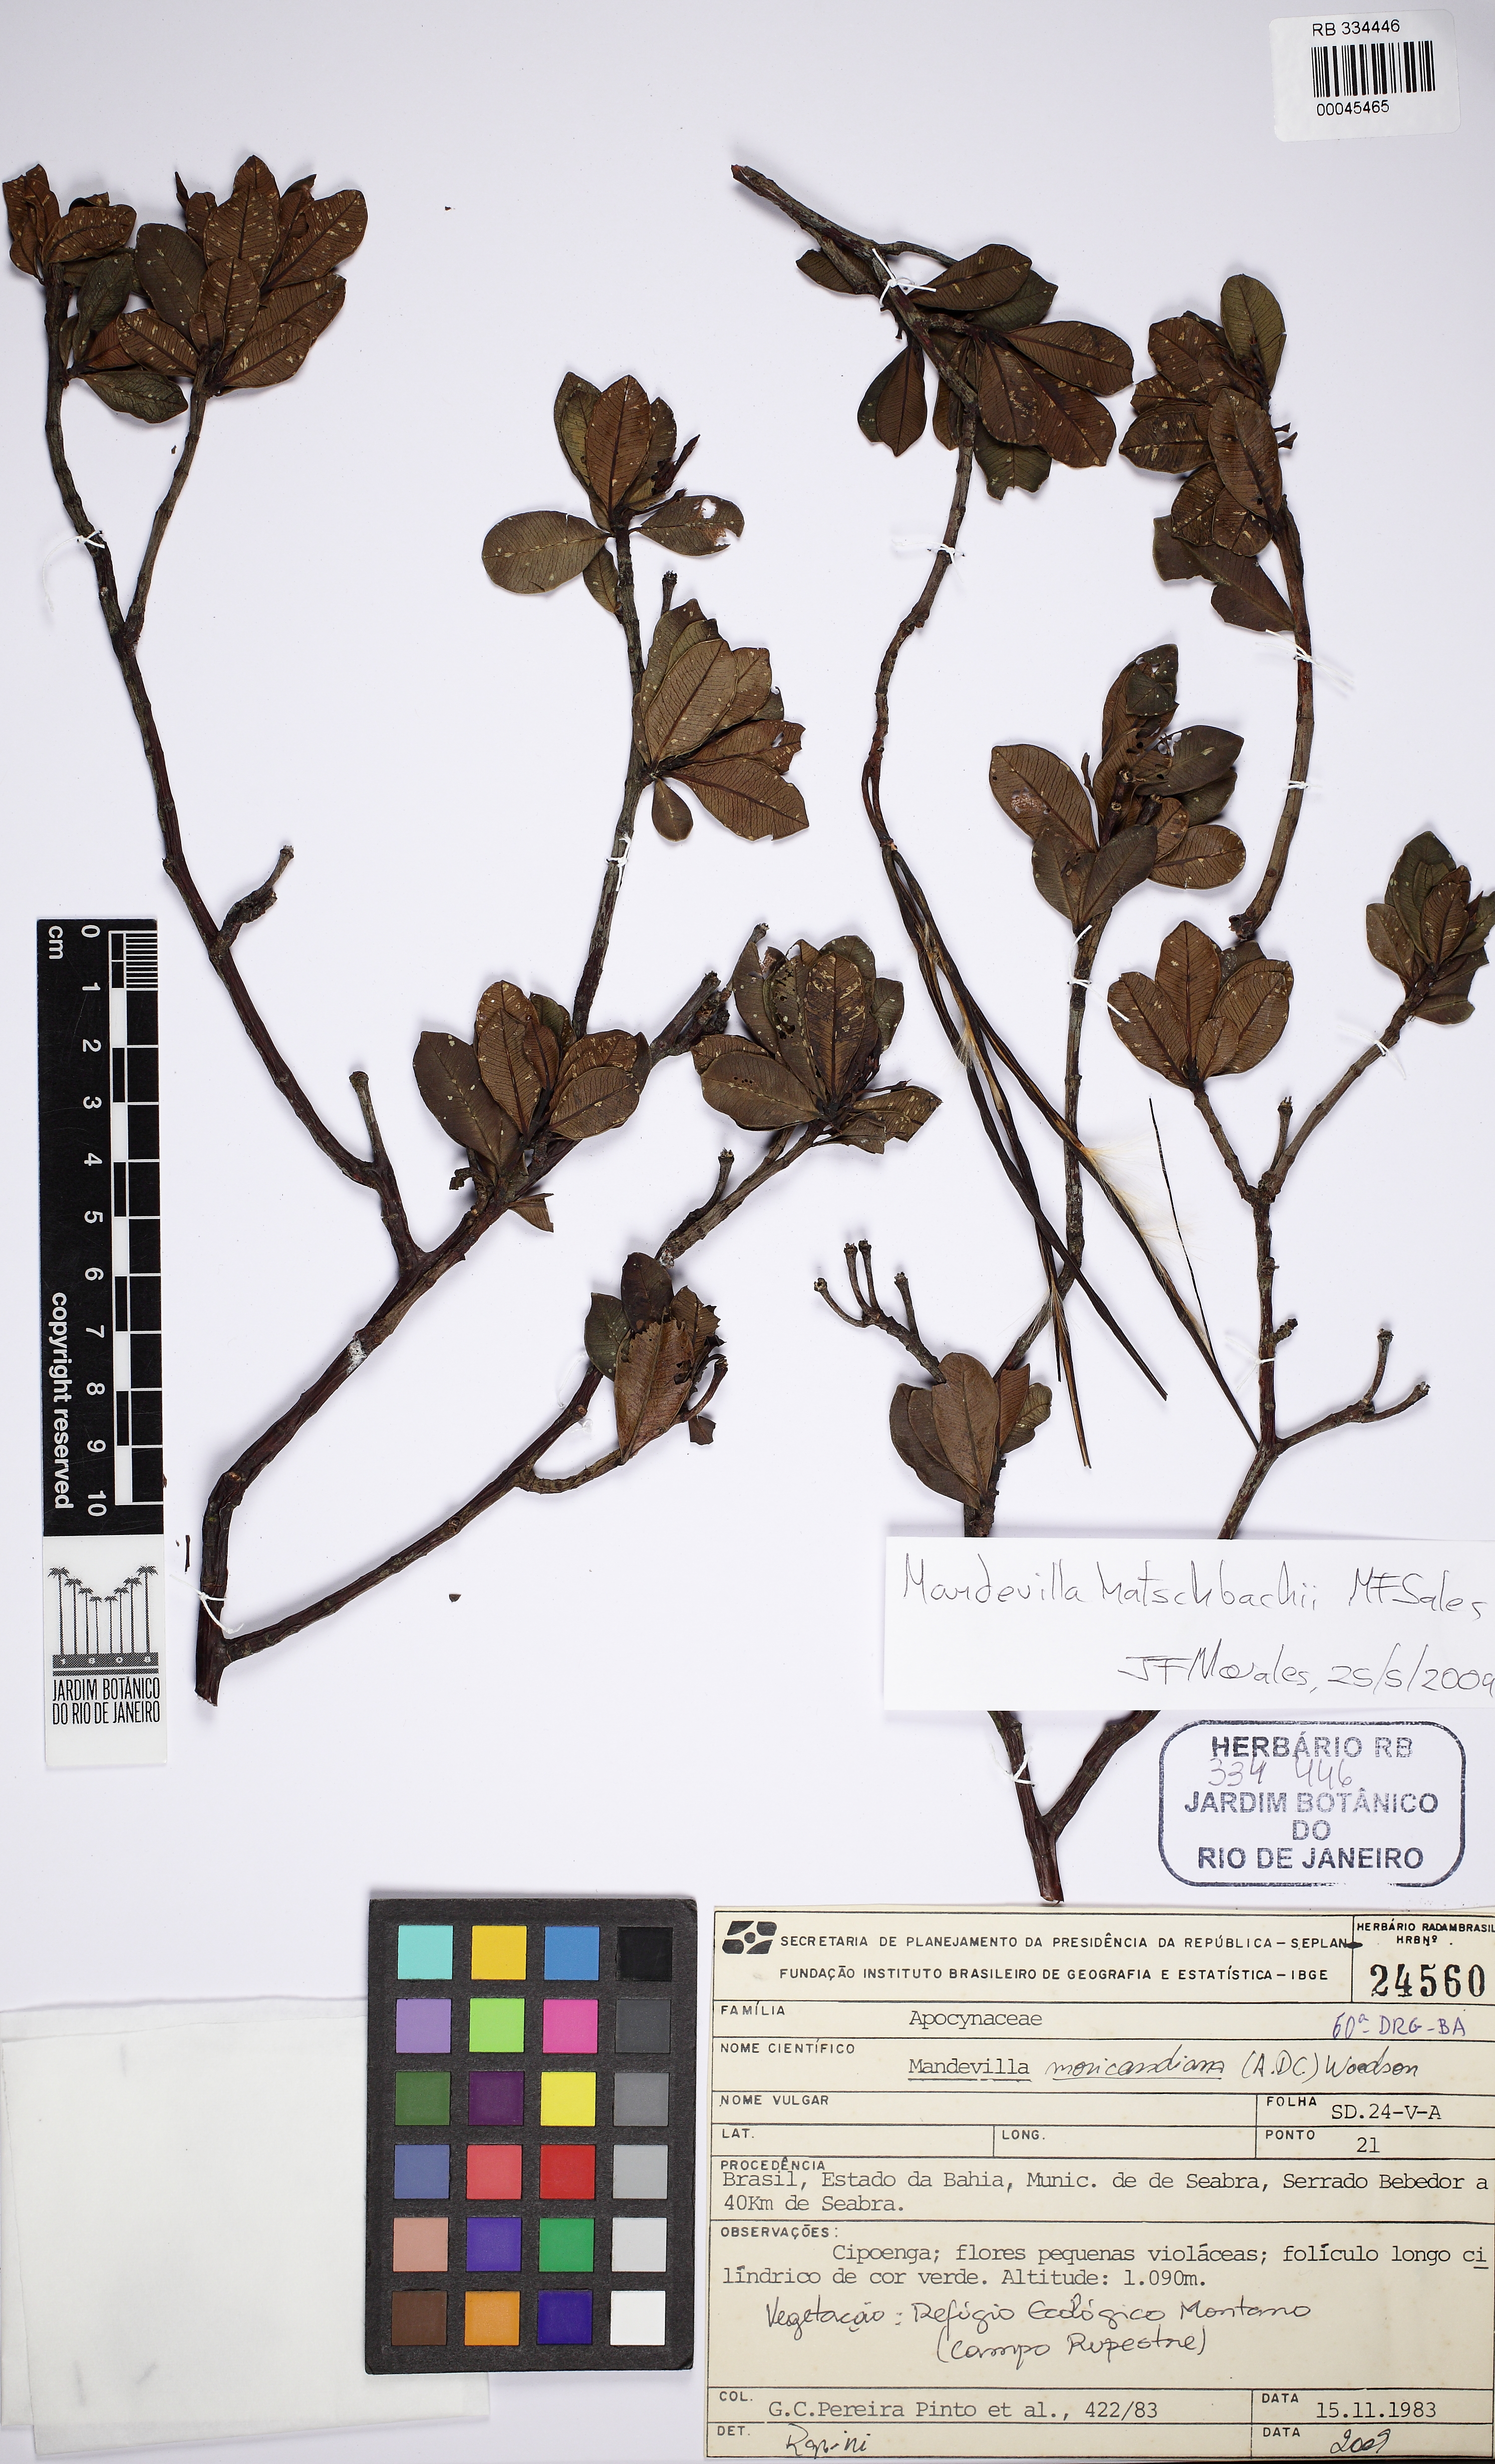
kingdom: Plantae
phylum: Tracheophyta
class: Magnoliopsida
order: Gentianales
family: Apocynaceae
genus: Mandevilla
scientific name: Mandevilla hatschbachii
